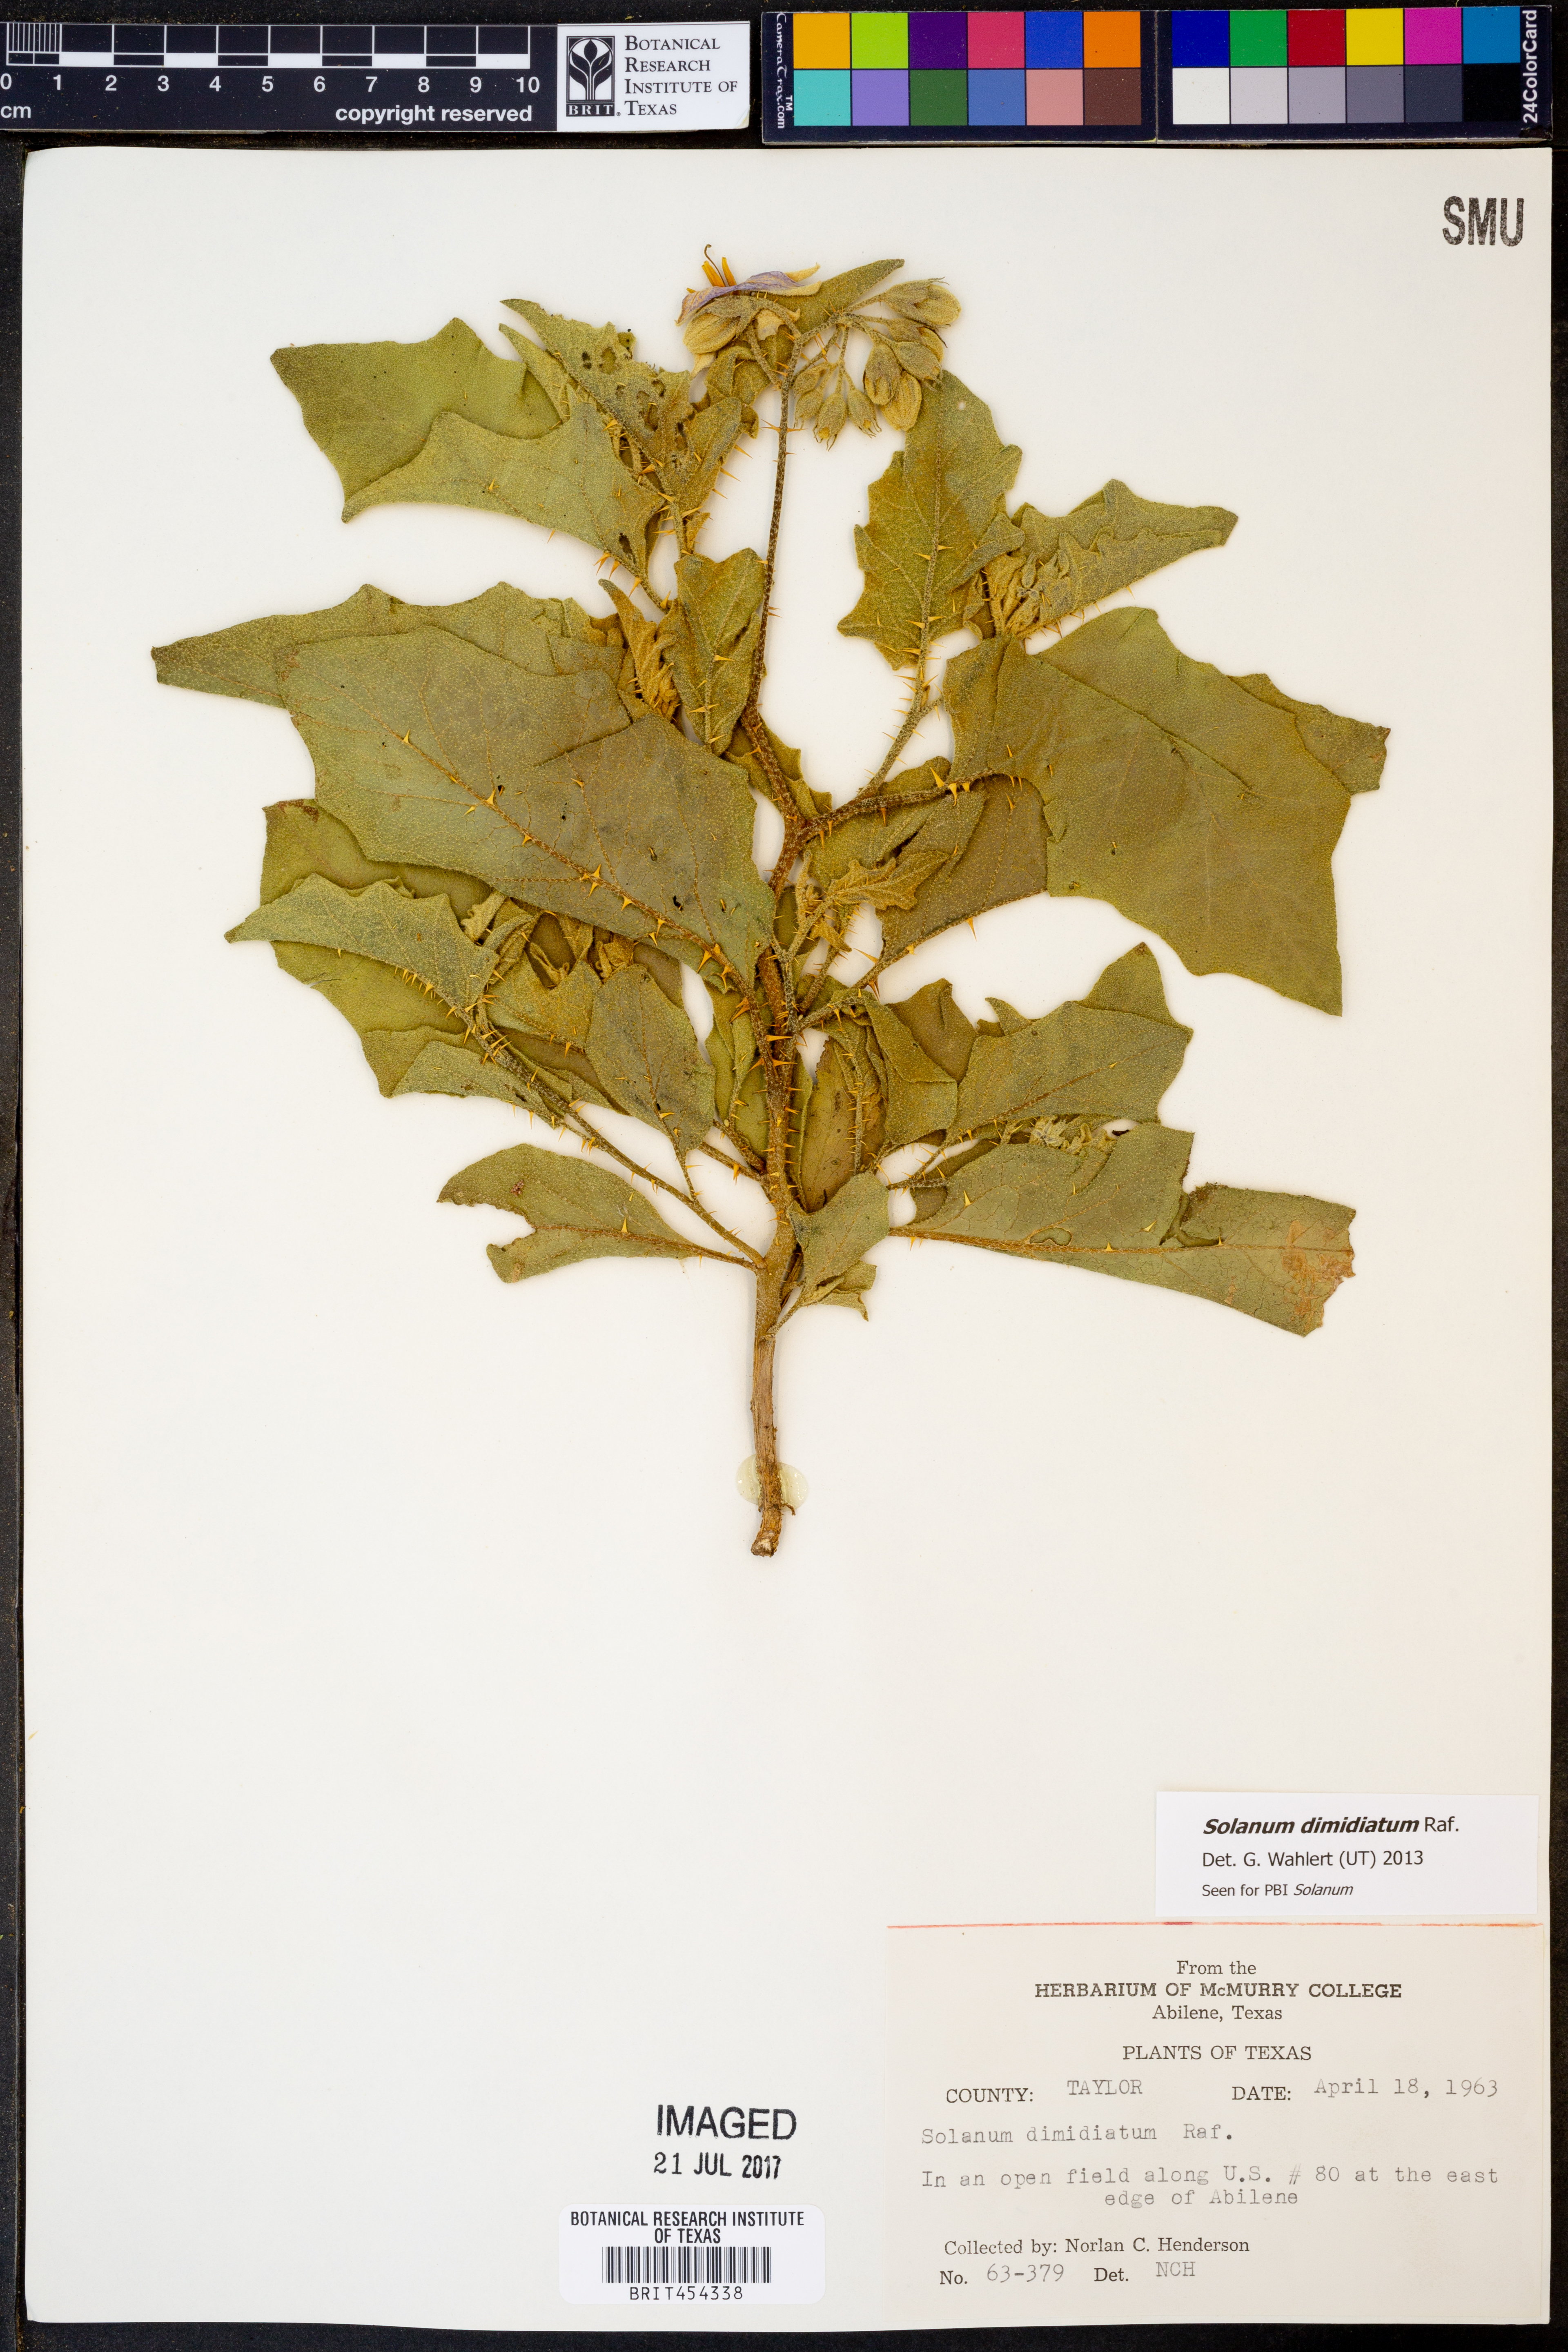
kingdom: Plantae
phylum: Tracheophyta
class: Magnoliopsida
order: Solanales
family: Solanaceae
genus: Solanum
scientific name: Solanum dimidiatum
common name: Carolina horse-nettle
